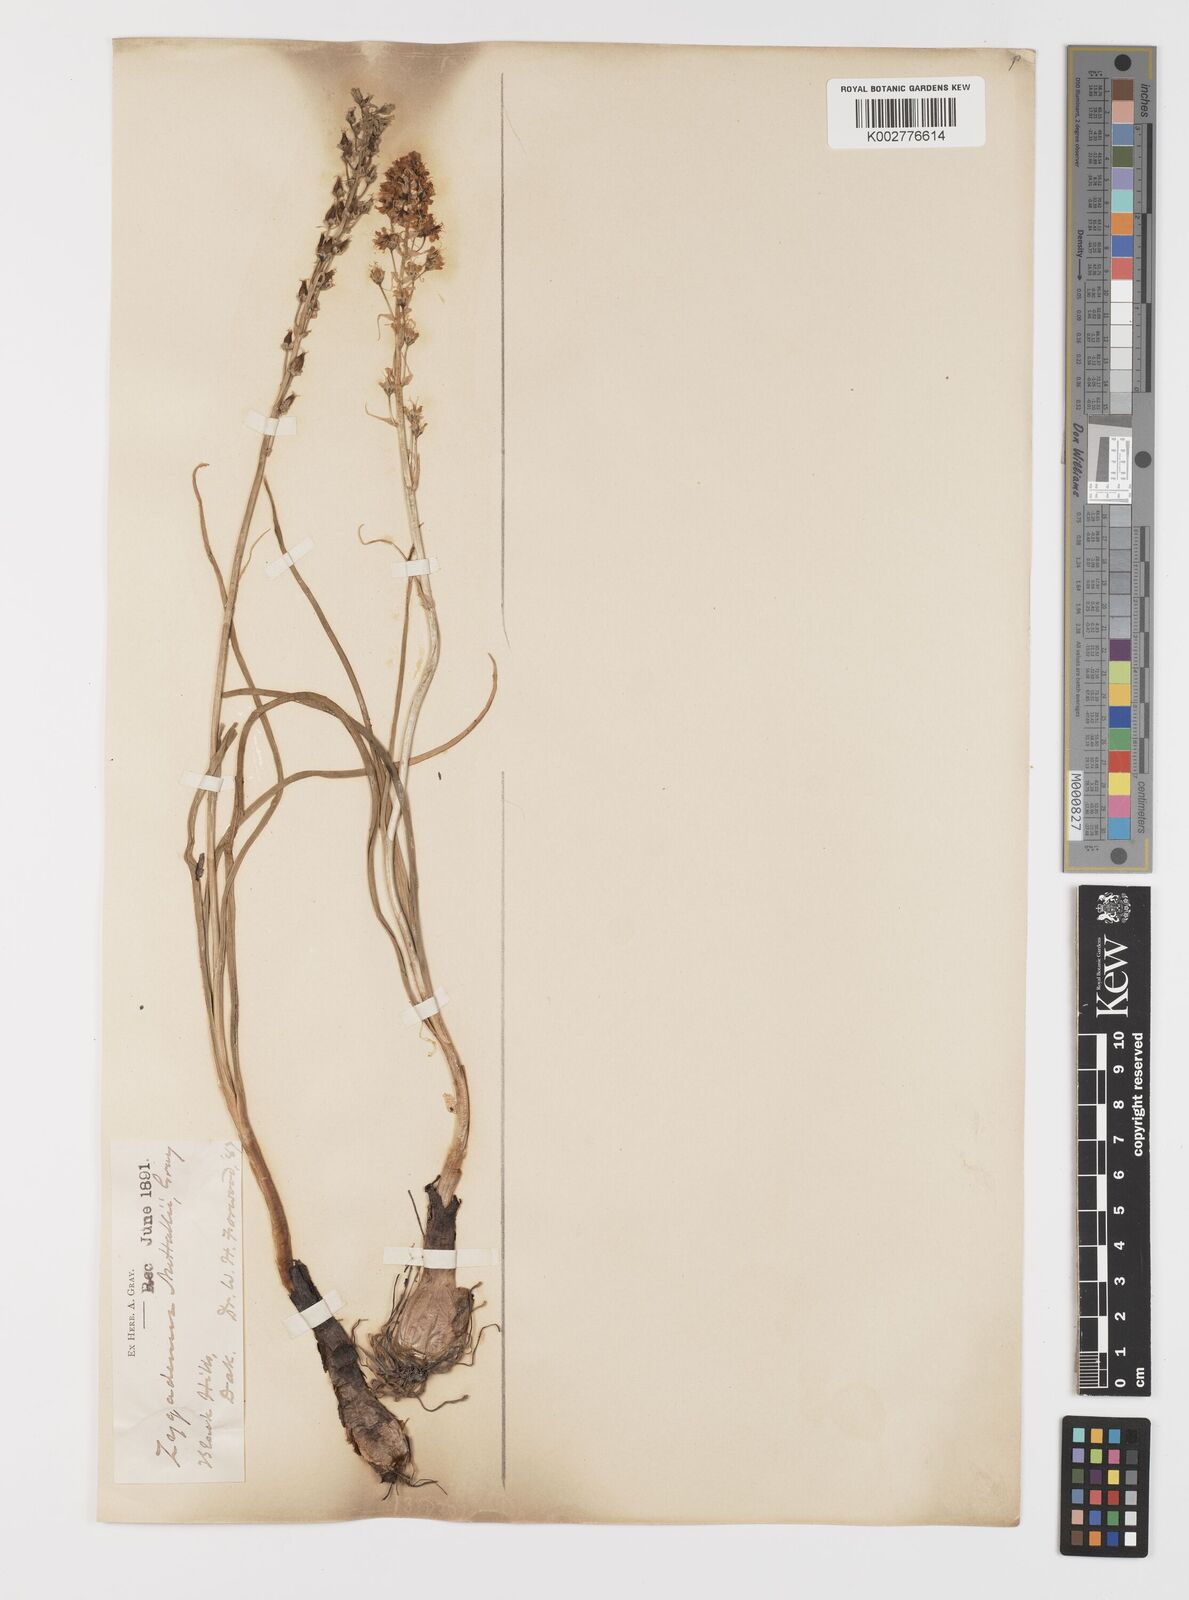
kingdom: Plantae
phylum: Tracheophyta
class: Liliopsida
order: Liliales
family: Melanthiaceae
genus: Toxicoscordion
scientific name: Toxicoscordion venenosum
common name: Meadow death camas
